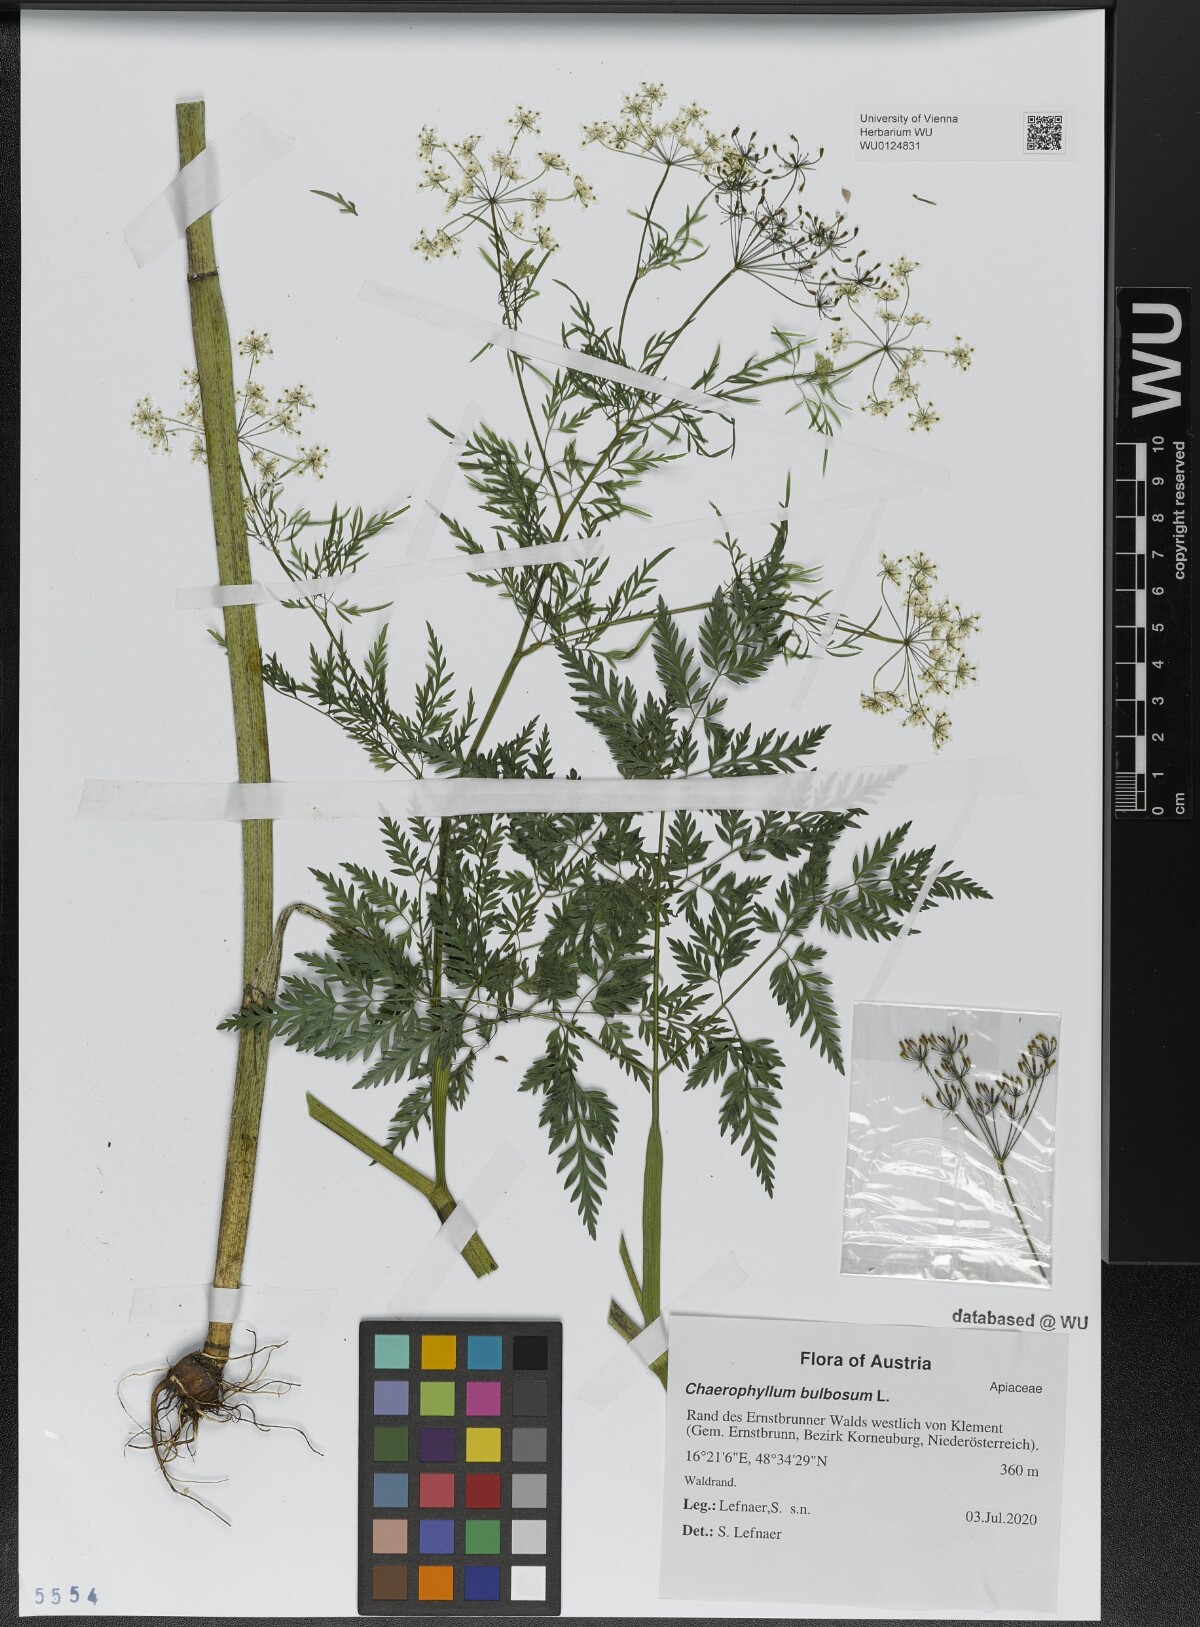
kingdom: Plantae
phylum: Tracheophyta
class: Magnoliopsida
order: Apiales
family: Apiaceae
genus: Chaerophyllum
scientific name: Chaerophyllum bulbosum
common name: Bulbous chervil
